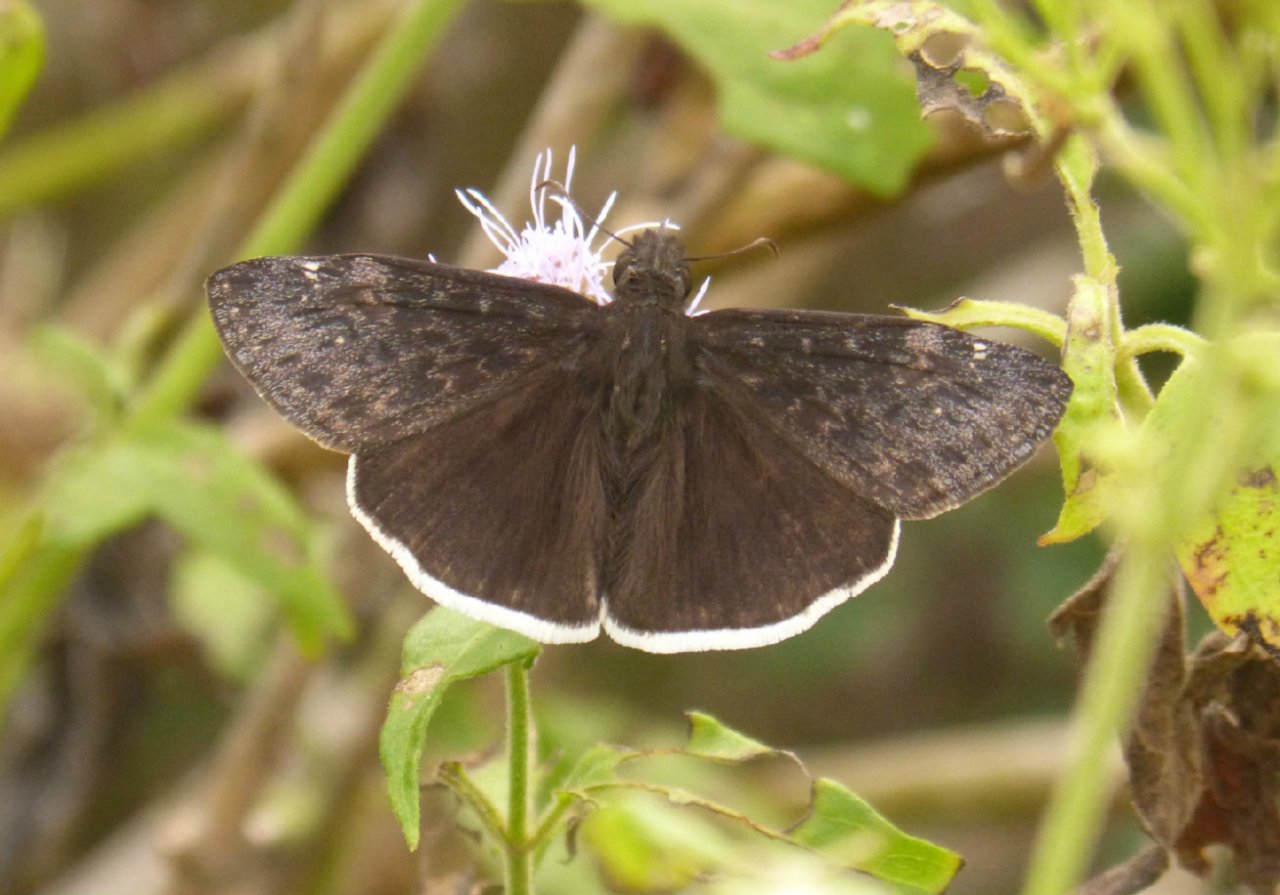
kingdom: Animalia
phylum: Arthropoda
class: Insecta
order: Lepidoptera
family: Hesperiidae
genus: Erynnis
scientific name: Erynnis funeralis
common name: Funereal Duskywing
